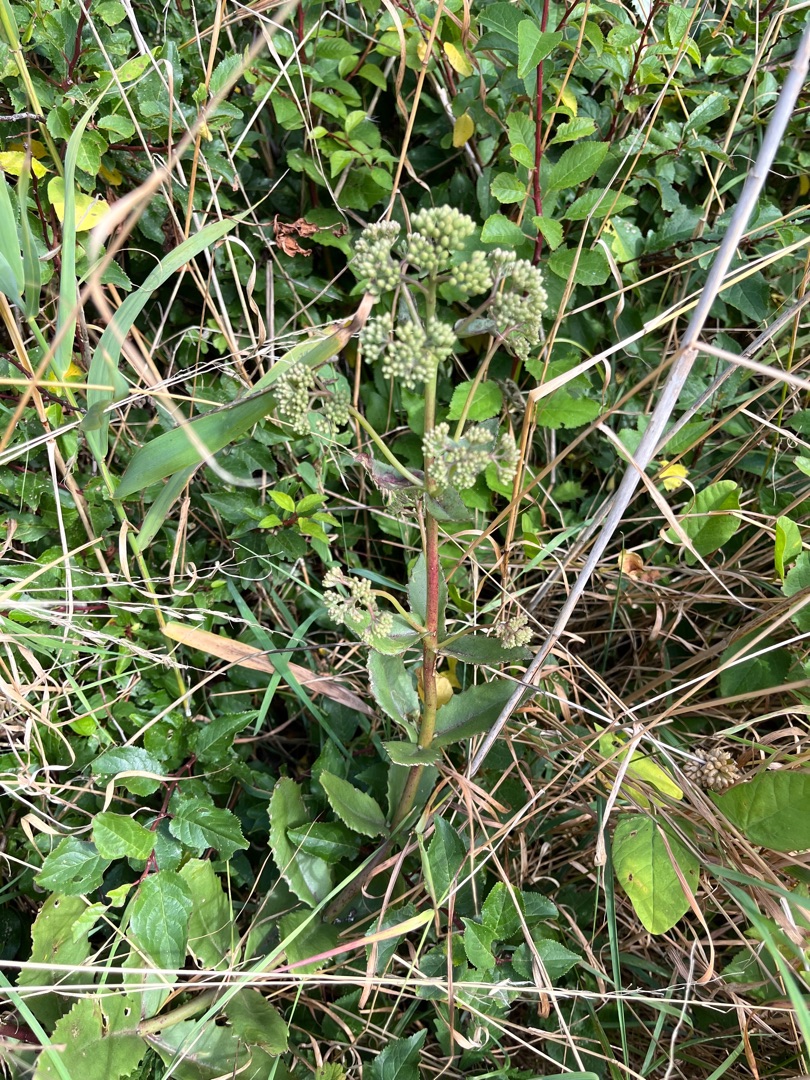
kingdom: Plantae
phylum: Tracheophyta
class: Magnoliopsida
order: Saxifragales
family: Crassulaceae
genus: Hylotelephium
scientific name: Hylotelephium maximum
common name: Almindelig sankthansurt
